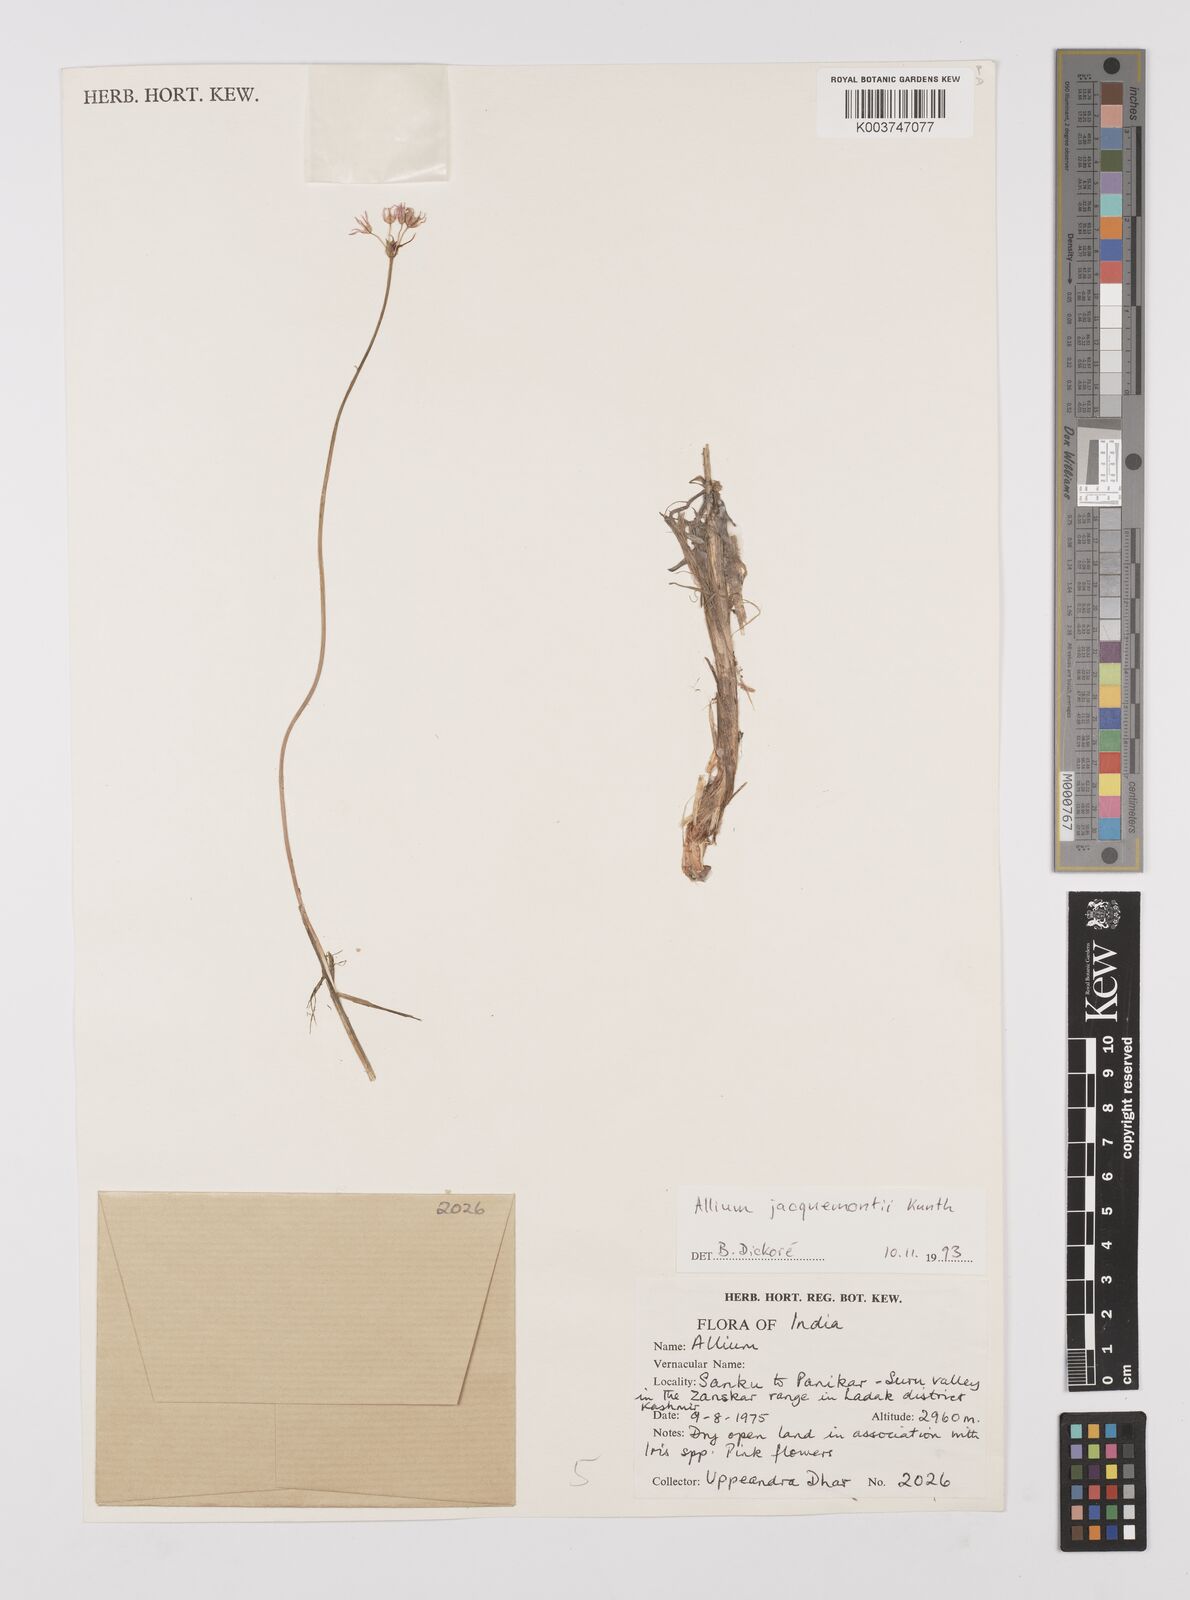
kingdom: Plantae
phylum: Tracheophyta
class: Liliopsida
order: Asparagales
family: Amaryllidaceae
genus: Allium
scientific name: Allium rubellum
